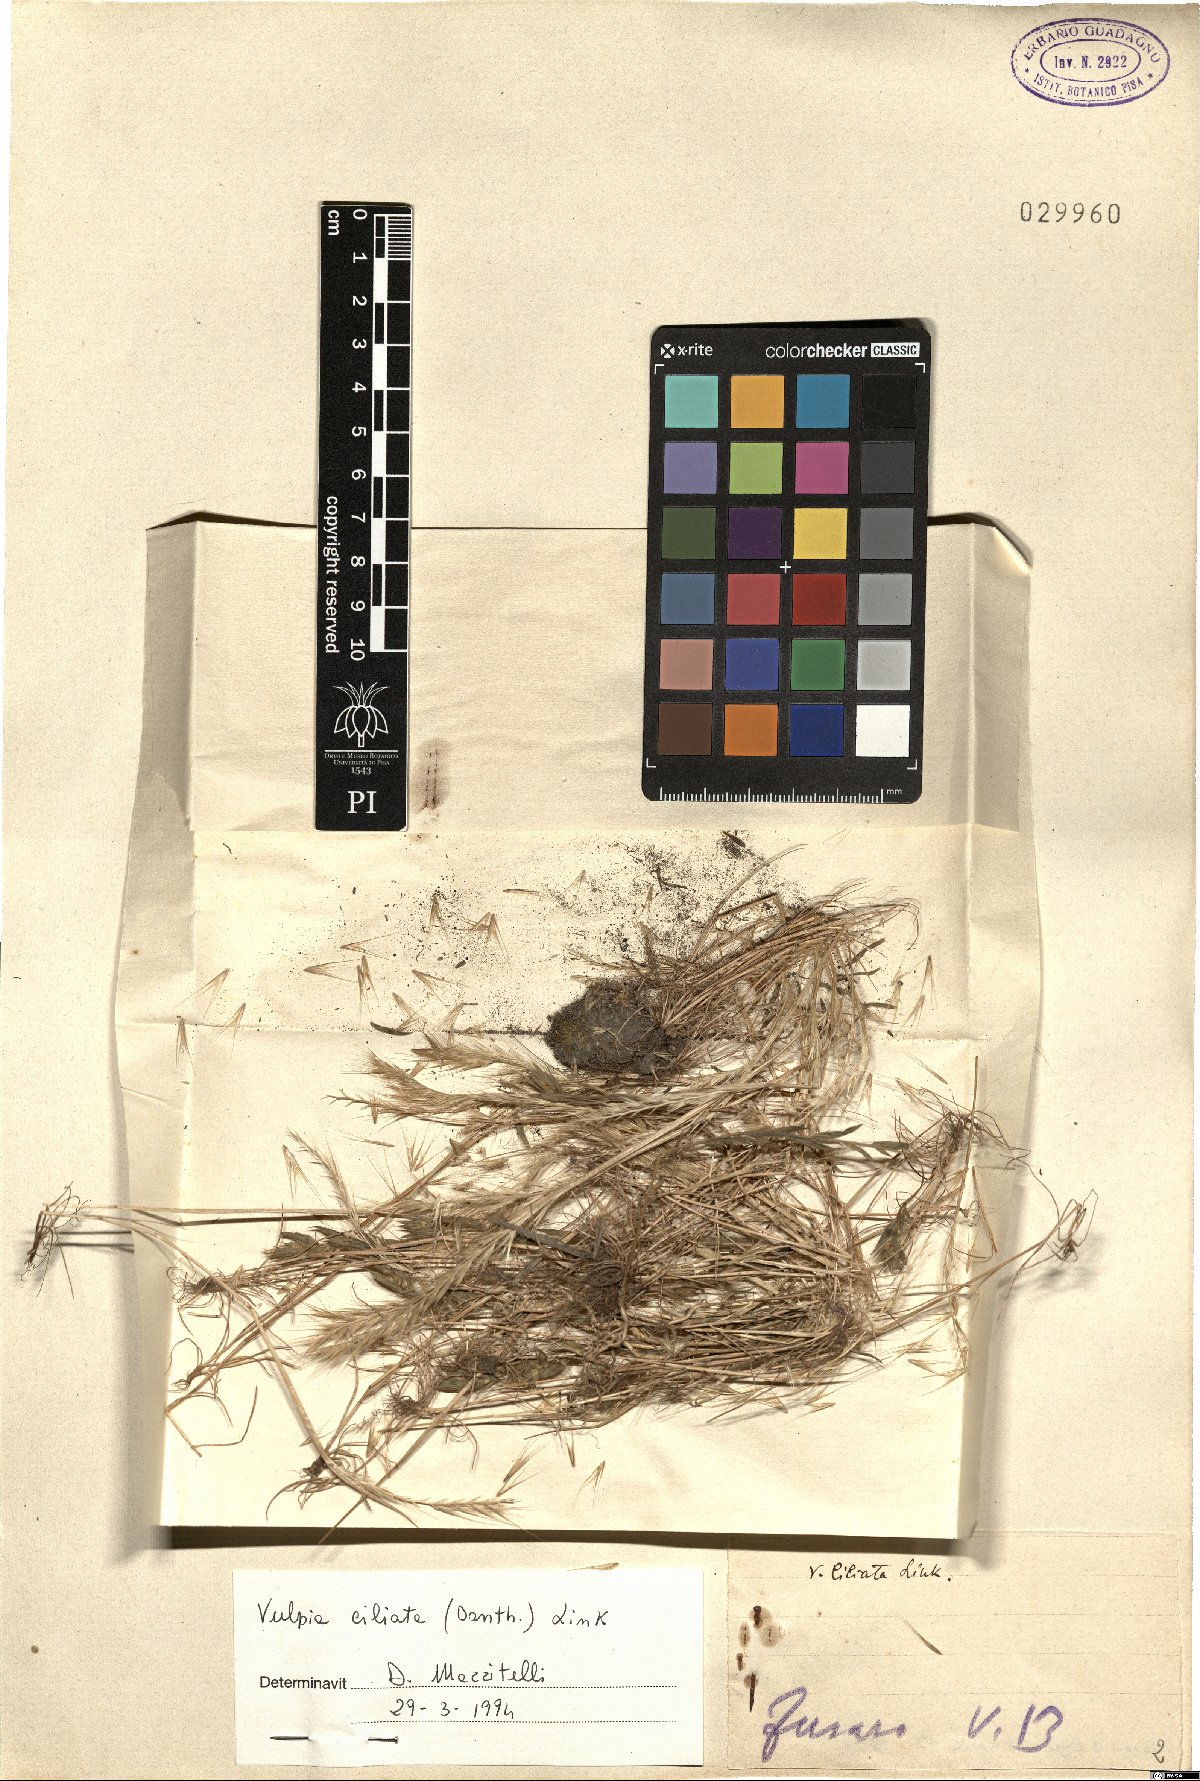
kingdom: Plantae
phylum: Tracheophyta
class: Liliopsida
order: Poales
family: Poaceae
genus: Festuca
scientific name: Festuca ambigua
